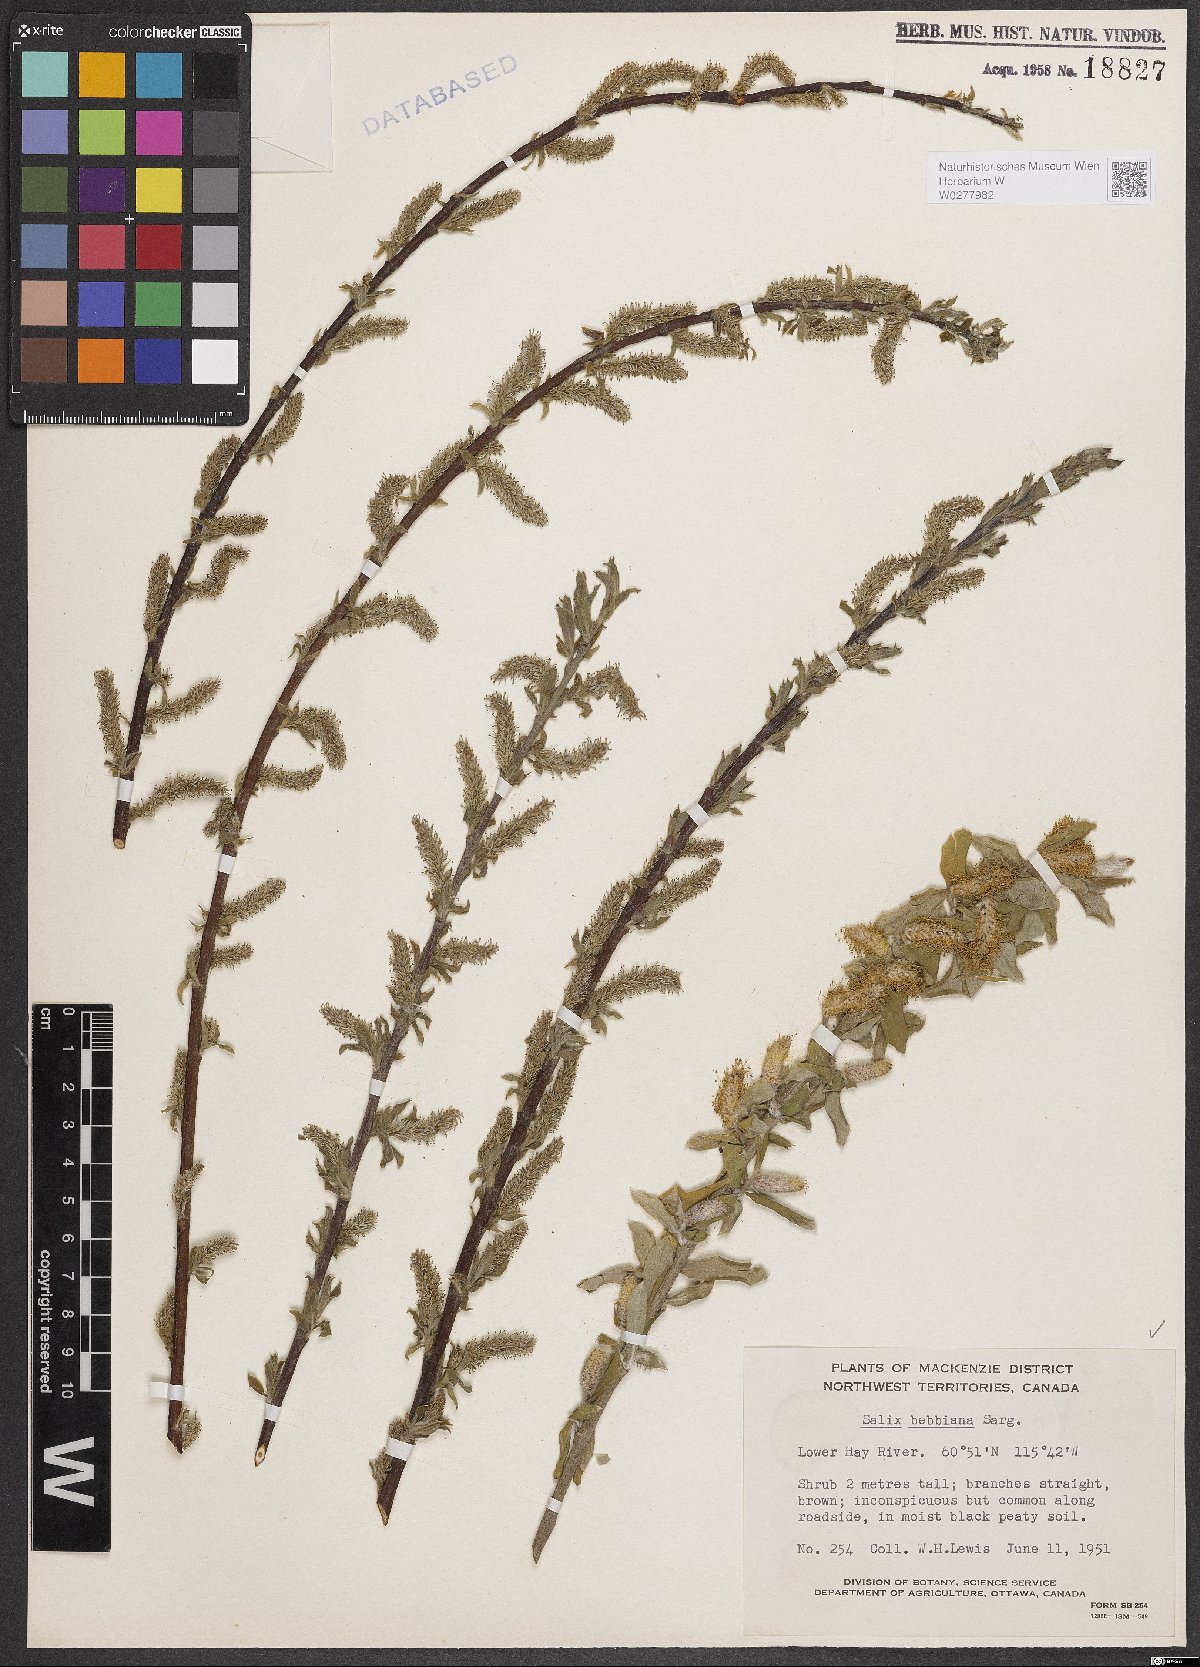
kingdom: Plantae
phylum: Tracheophyta
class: Magnoliopsida
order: Malpighiales
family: Salicaceae
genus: Salix
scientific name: Salix bebbiana
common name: Bebb's willow
